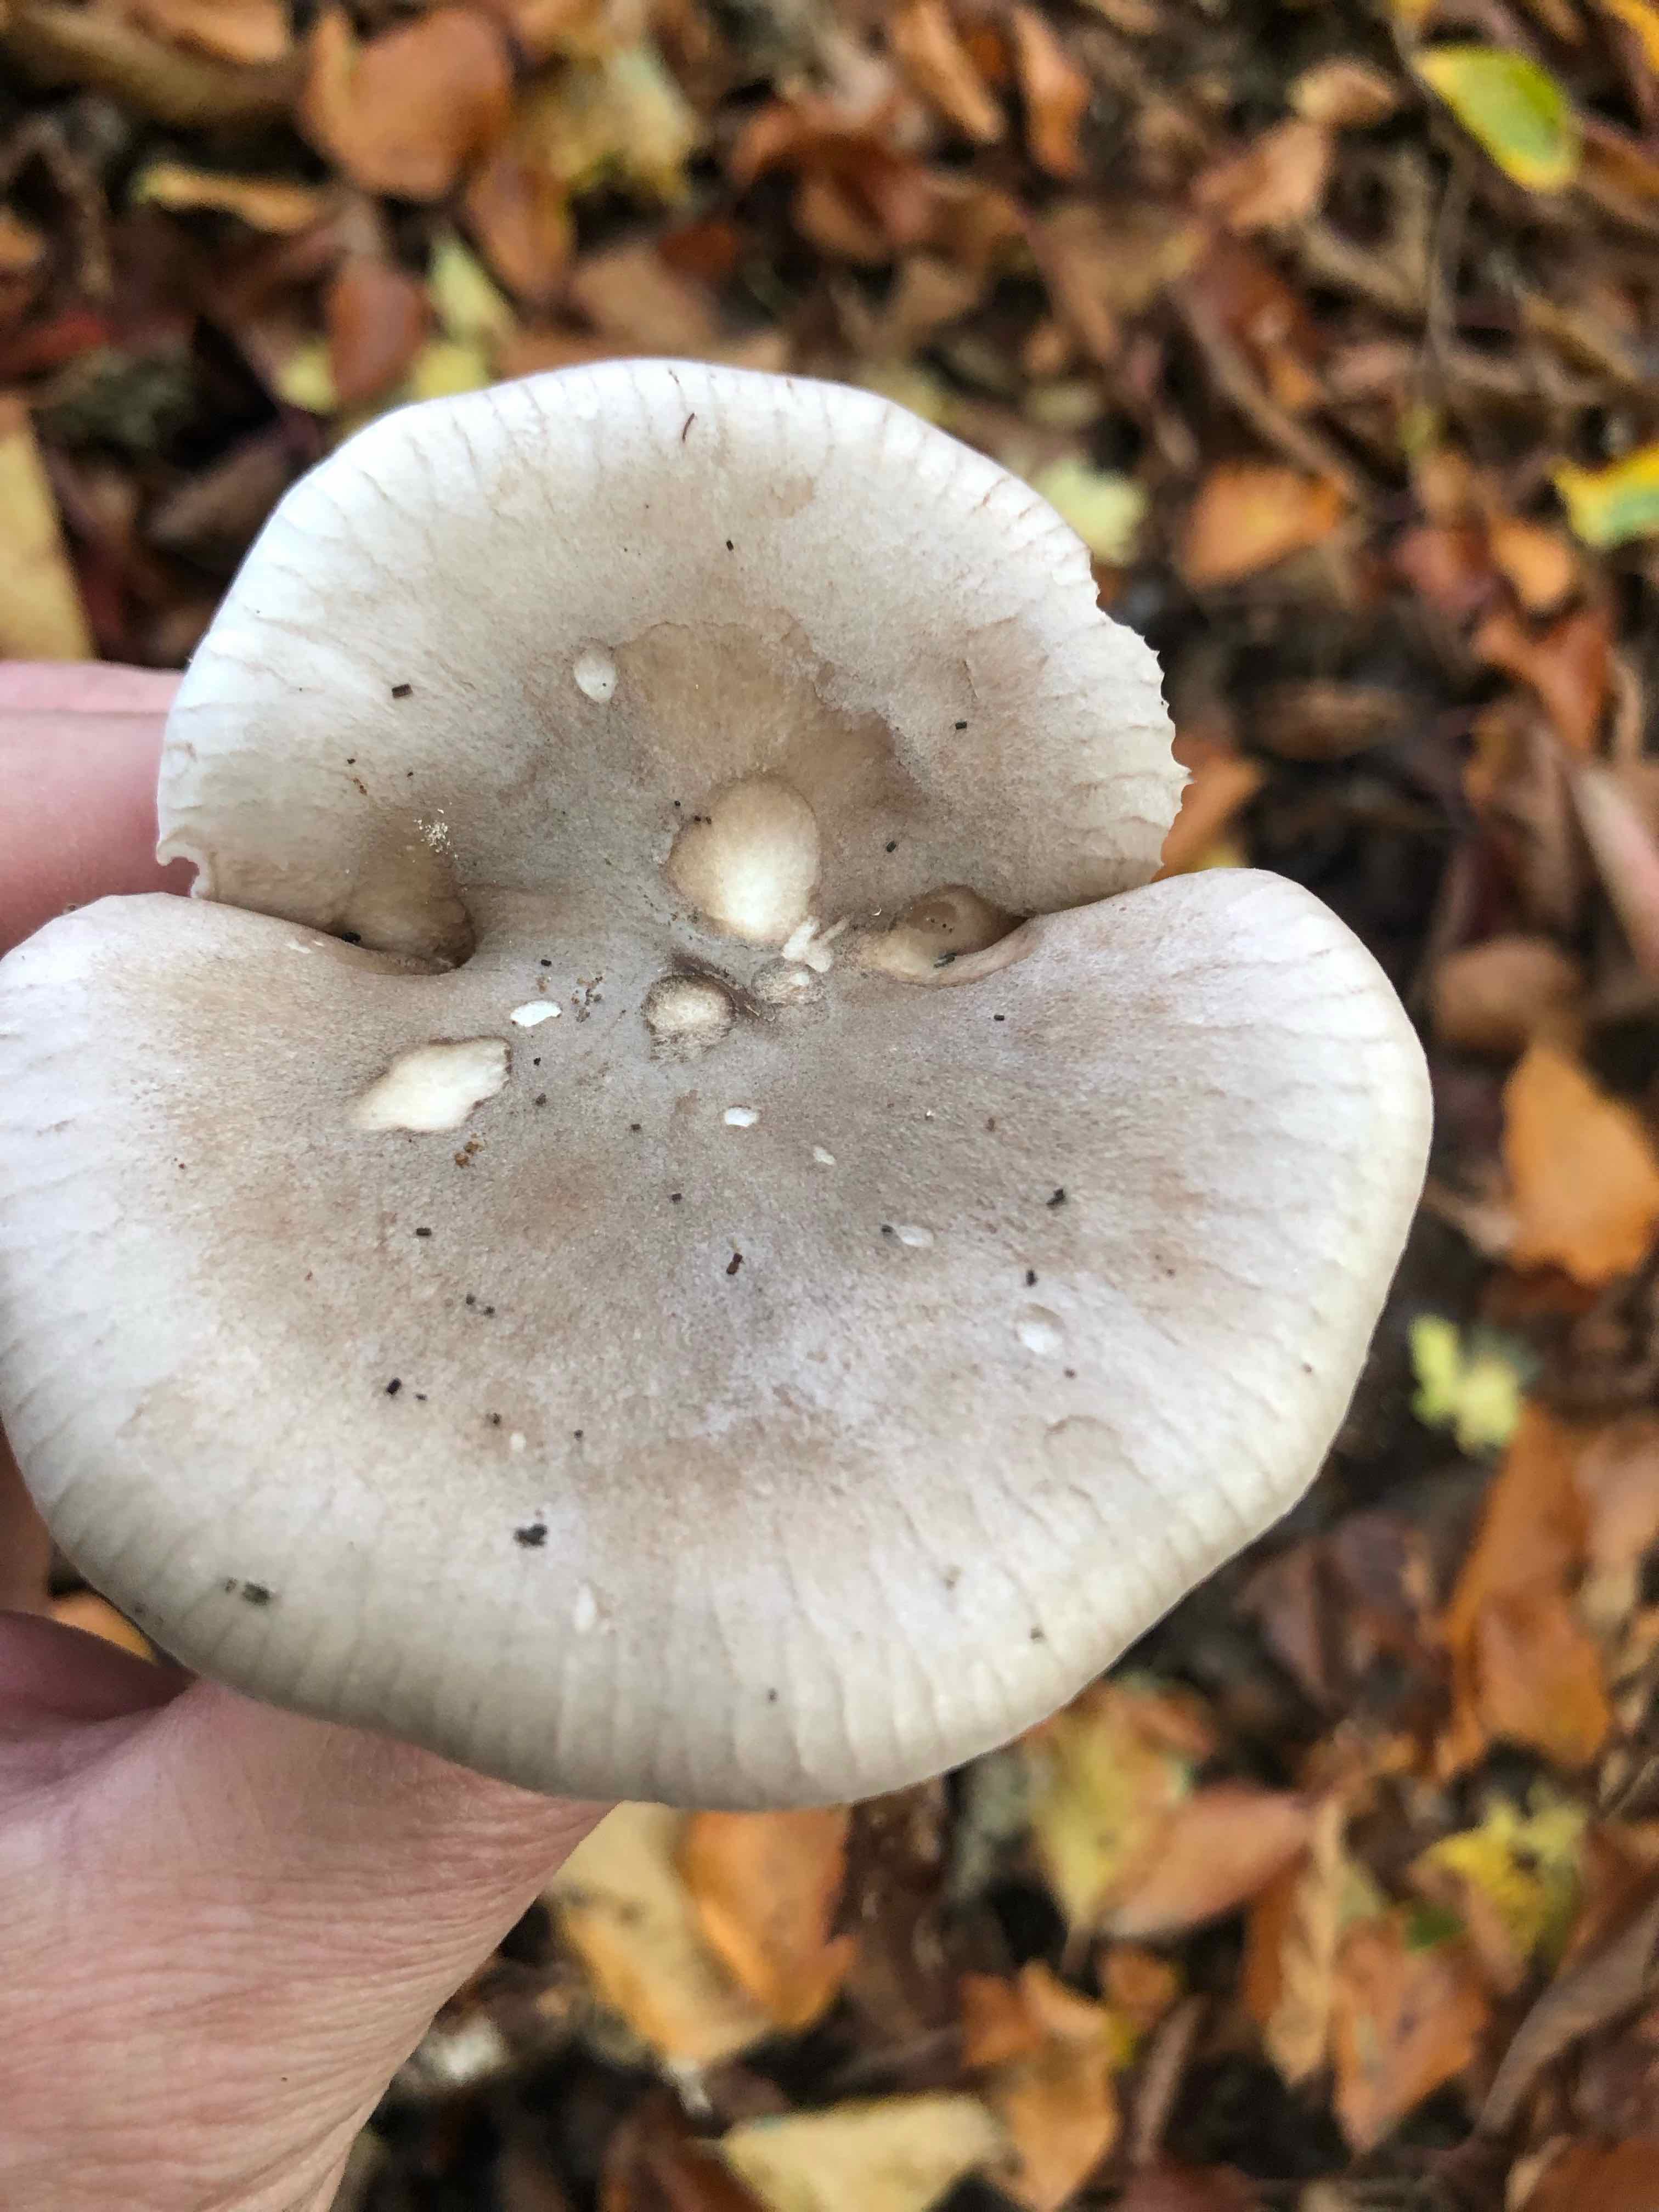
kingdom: Fungi
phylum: Basidiomycota
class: Agaricomycetes
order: Agaricales
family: Tricholomataceae
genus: Clitocybe
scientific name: Clitocybe nebularis
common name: tåge-tragthat
